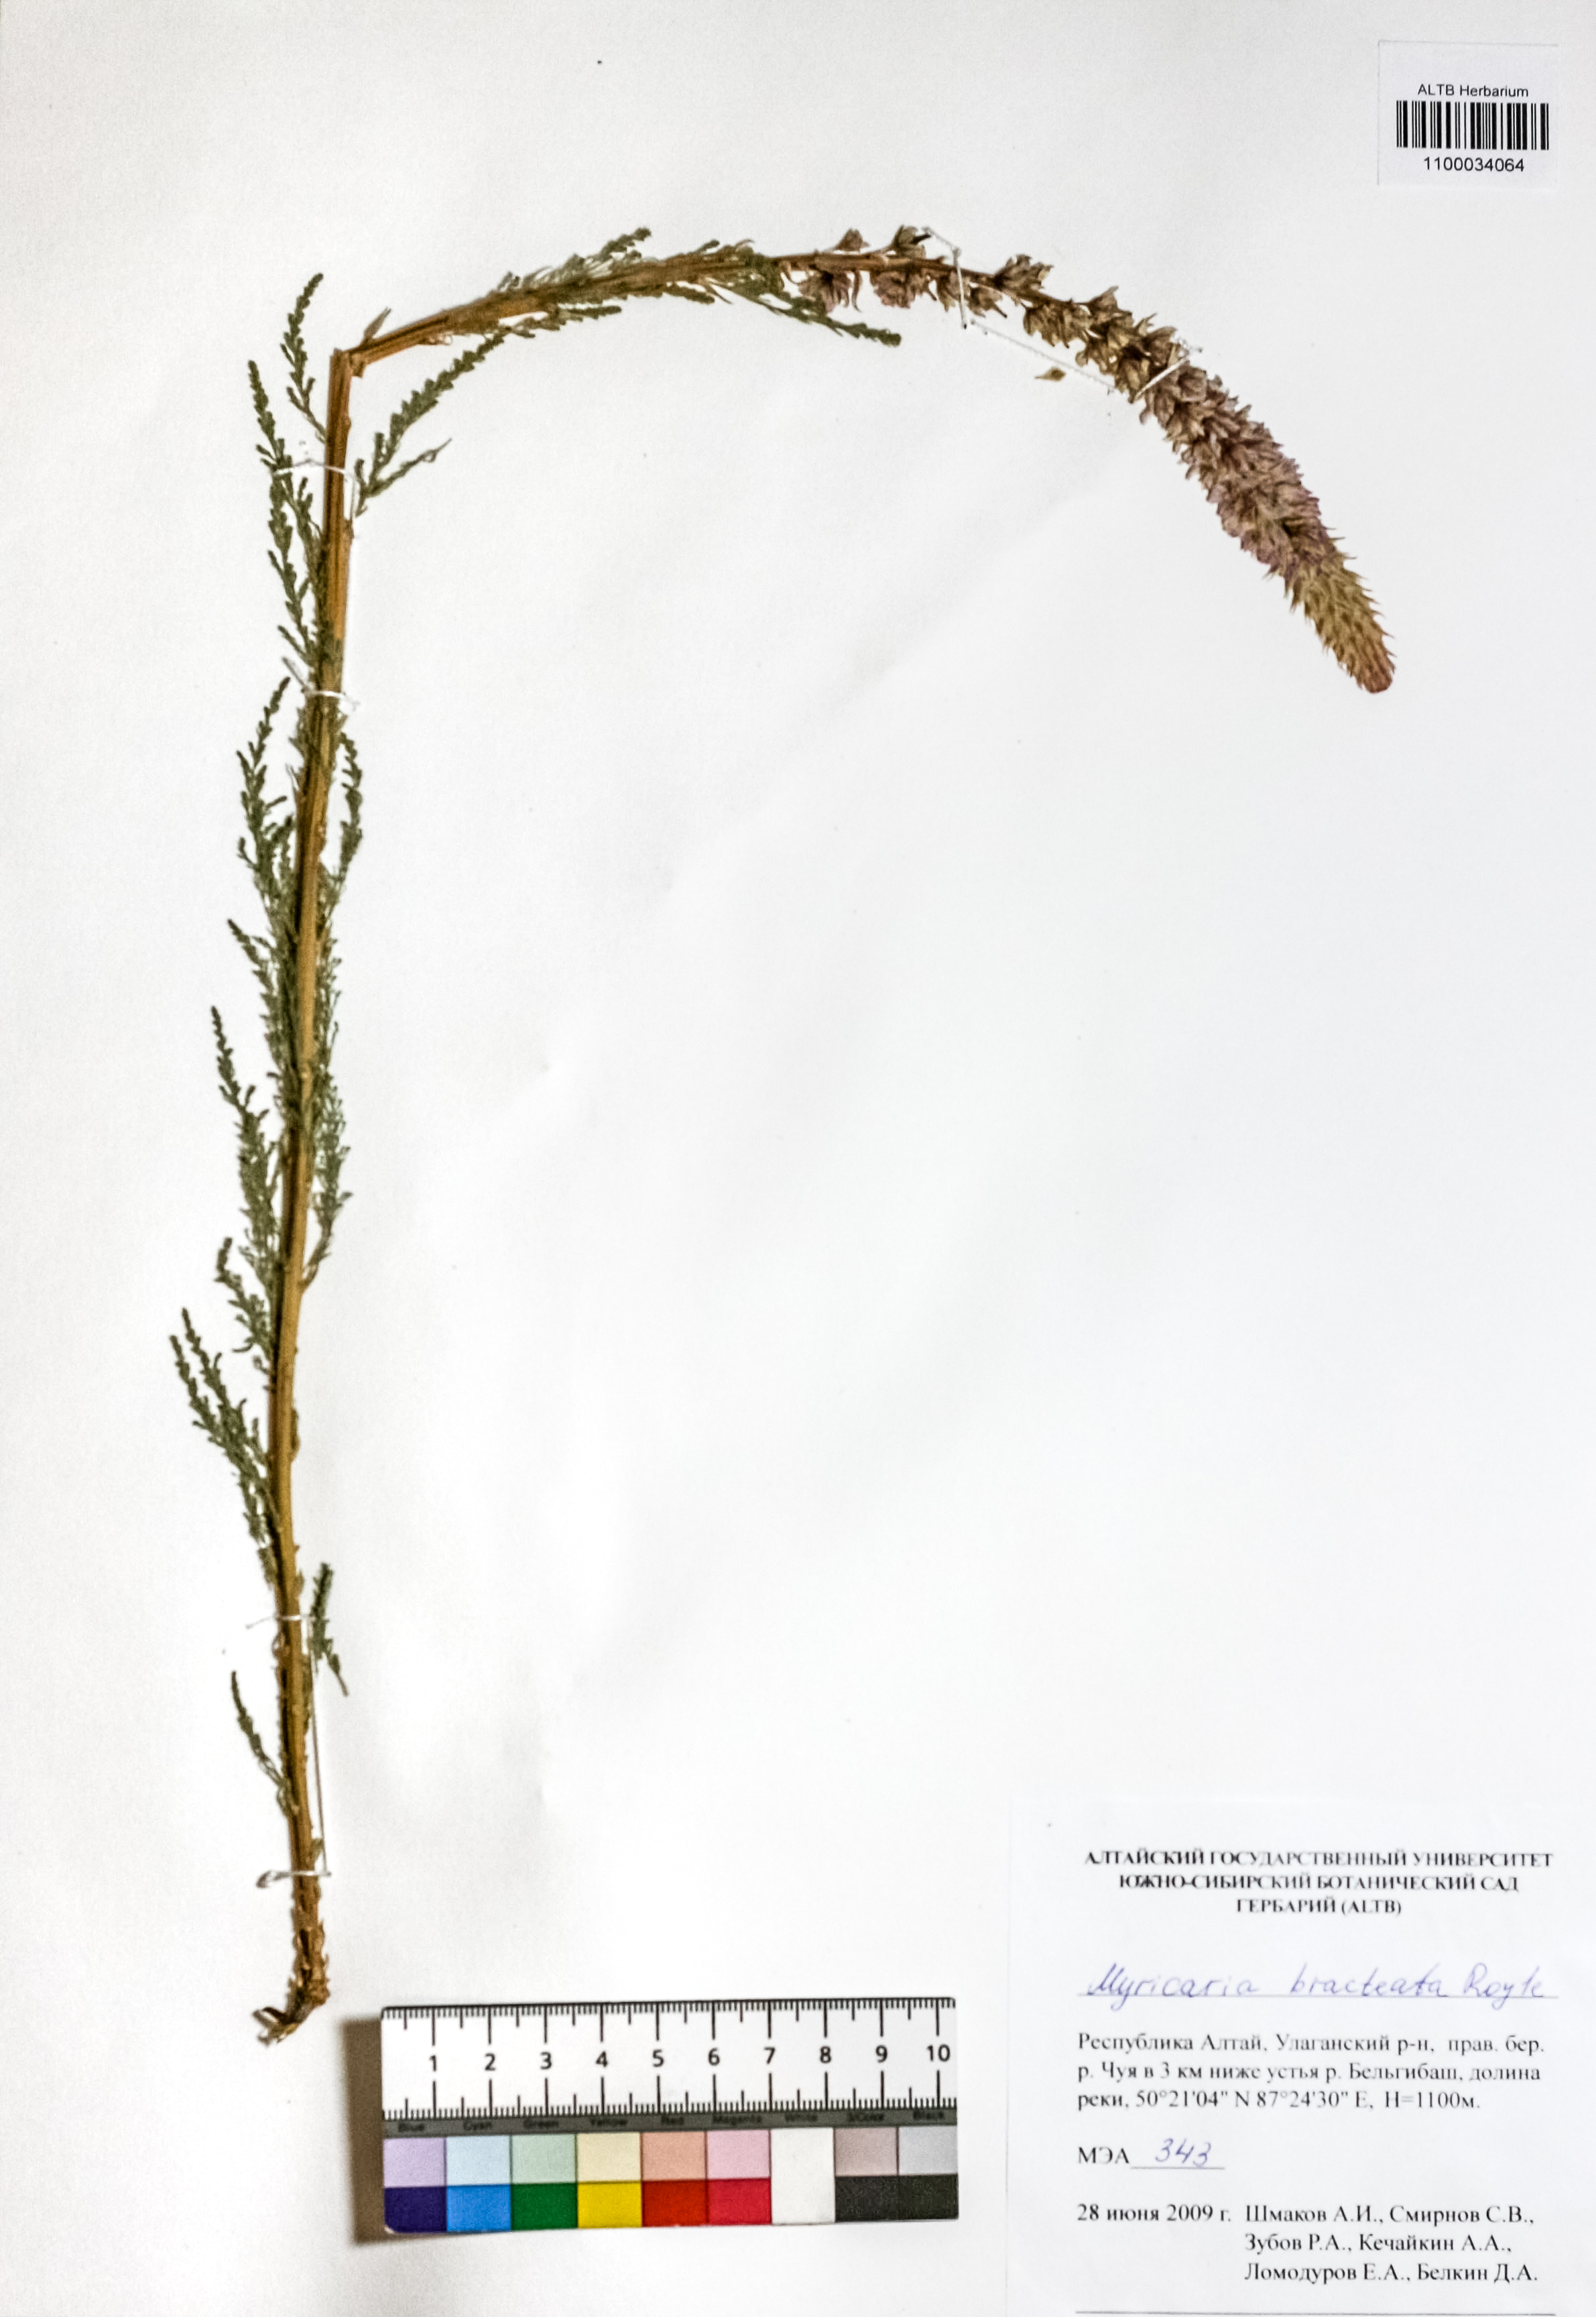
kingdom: Plantae
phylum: Tracheophyta
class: Magnoliopsida
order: Caryophyllales
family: Tamaricaceae
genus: Myricaria
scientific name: Myricaria bracteata
